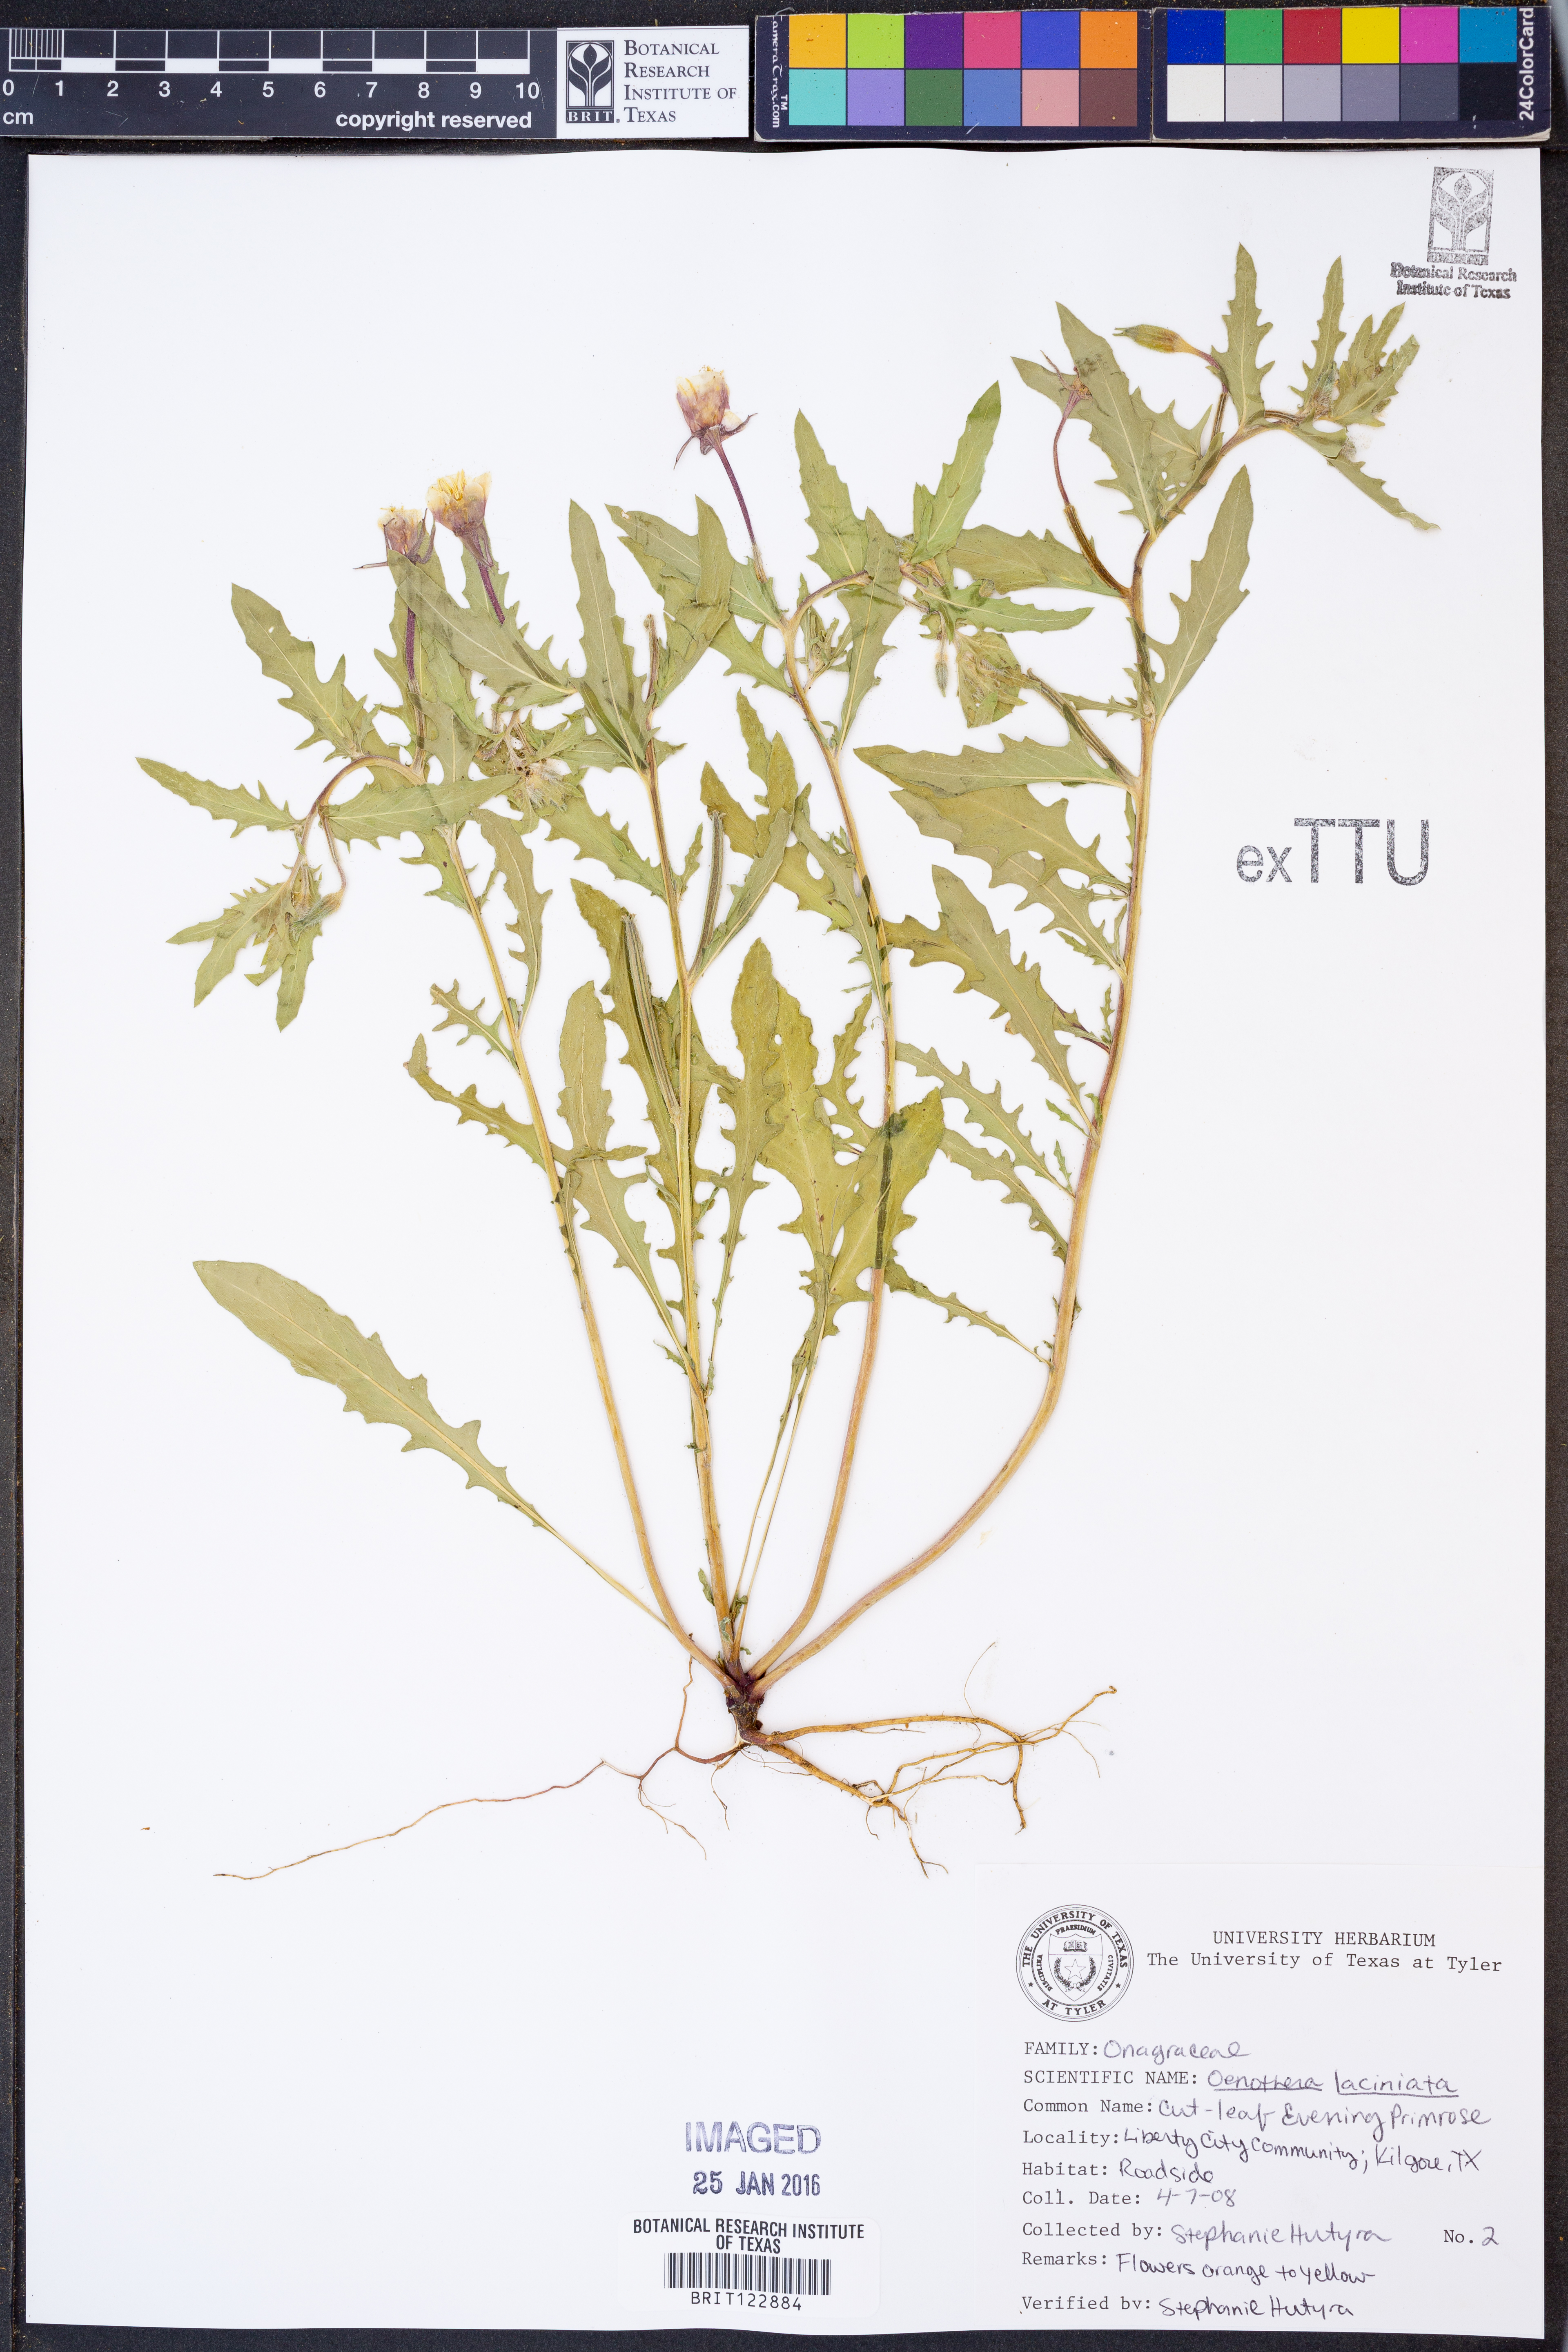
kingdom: Plantae
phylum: Tracheophyta
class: Magnoliopsida
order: Myrtales
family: Onagraceae
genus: Oenothera
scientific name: Oenothera laciniata
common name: Cut-leaved evening-primrose
